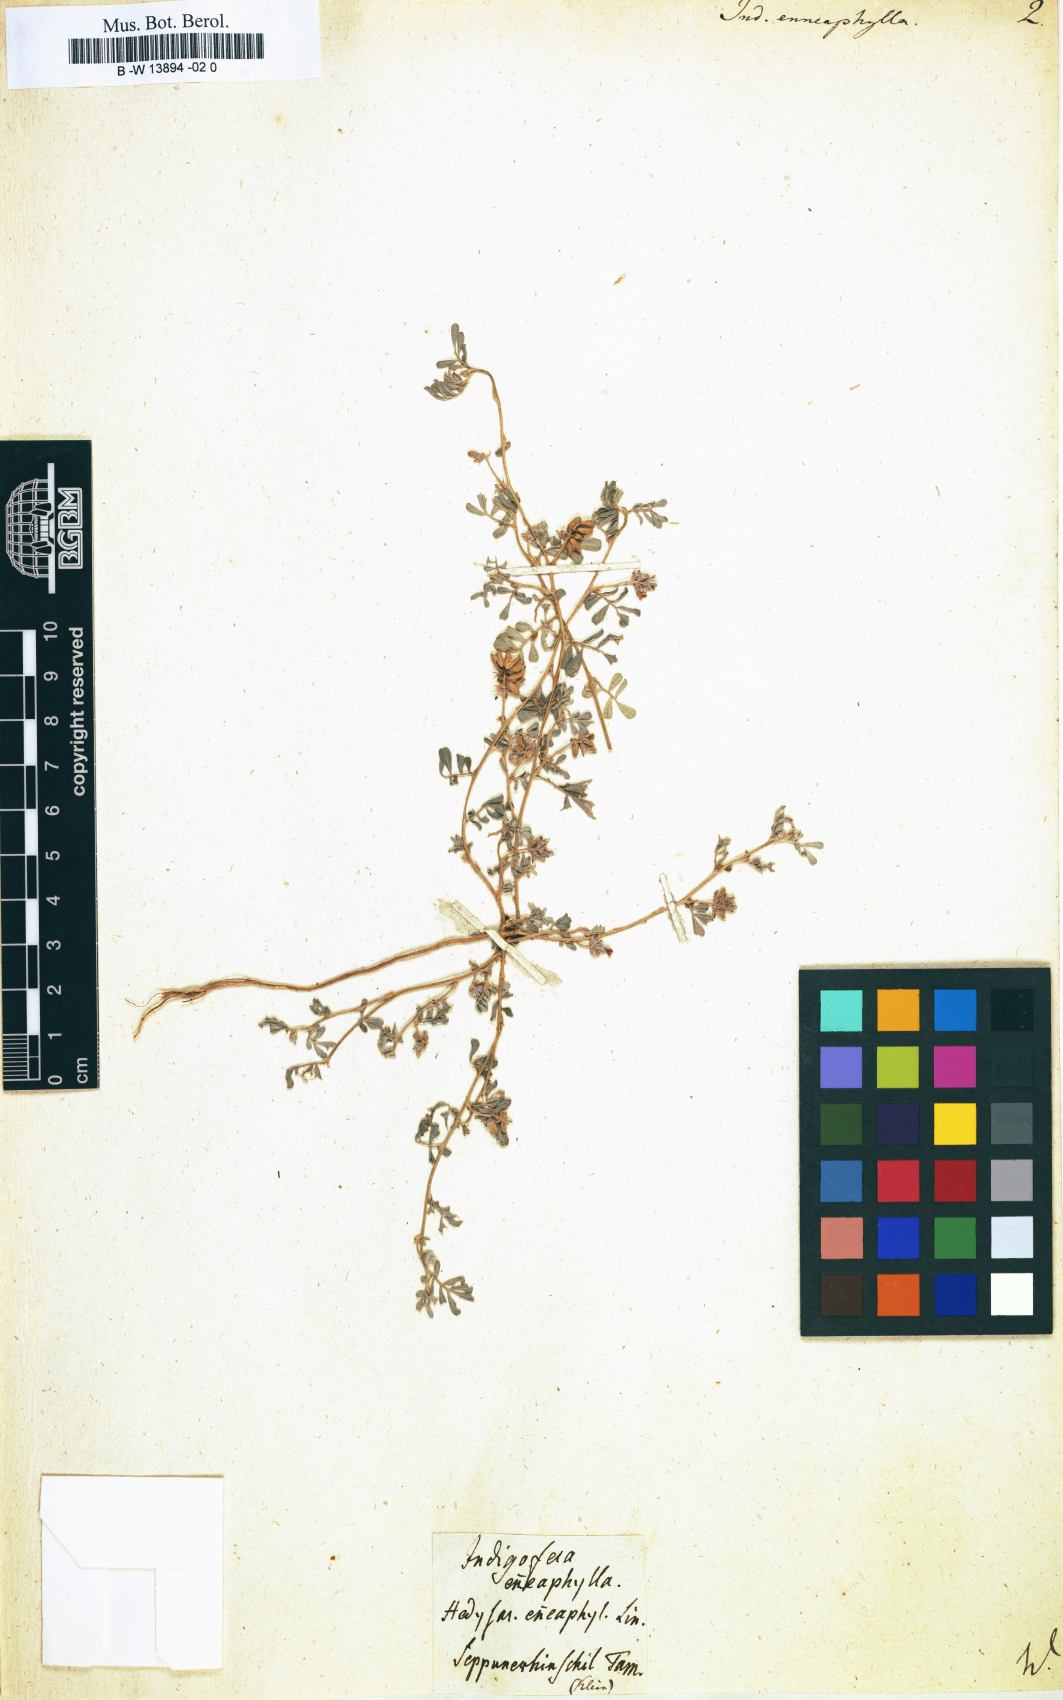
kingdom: Plantae
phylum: Tracheophyta
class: Magnoliopsida
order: Fabales
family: Fabaceae
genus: Indigofera
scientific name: Indigofera alternans
